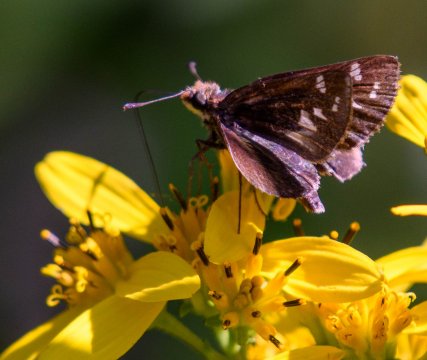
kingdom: Animalia
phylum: Arthropoda
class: Insecta
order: Lepidoptera
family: Hesperiidae
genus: Lon
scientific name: Lon zabulon
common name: Zabulon Skipper
